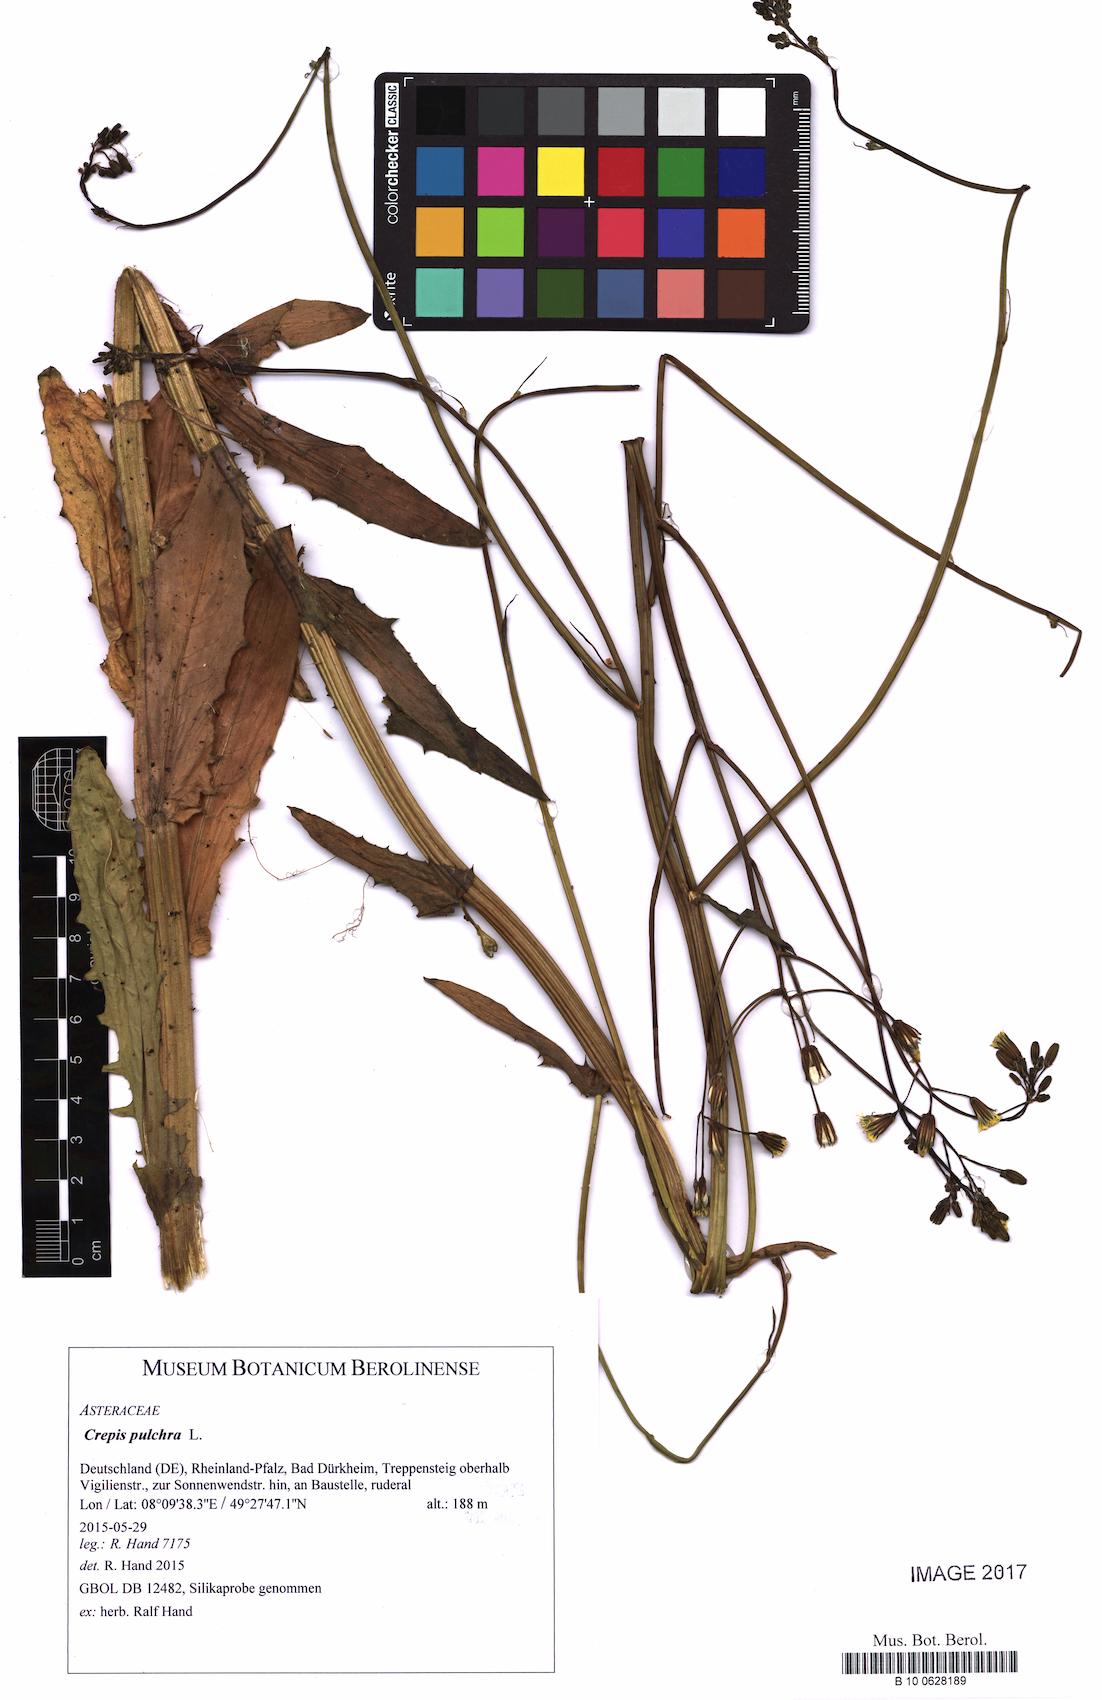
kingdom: Plantae
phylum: Tracheophyta
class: Magnoliopsida
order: Asterales
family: Asteraceae
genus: Crepis
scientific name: Crepis pulchra
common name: Hawk's-beard
